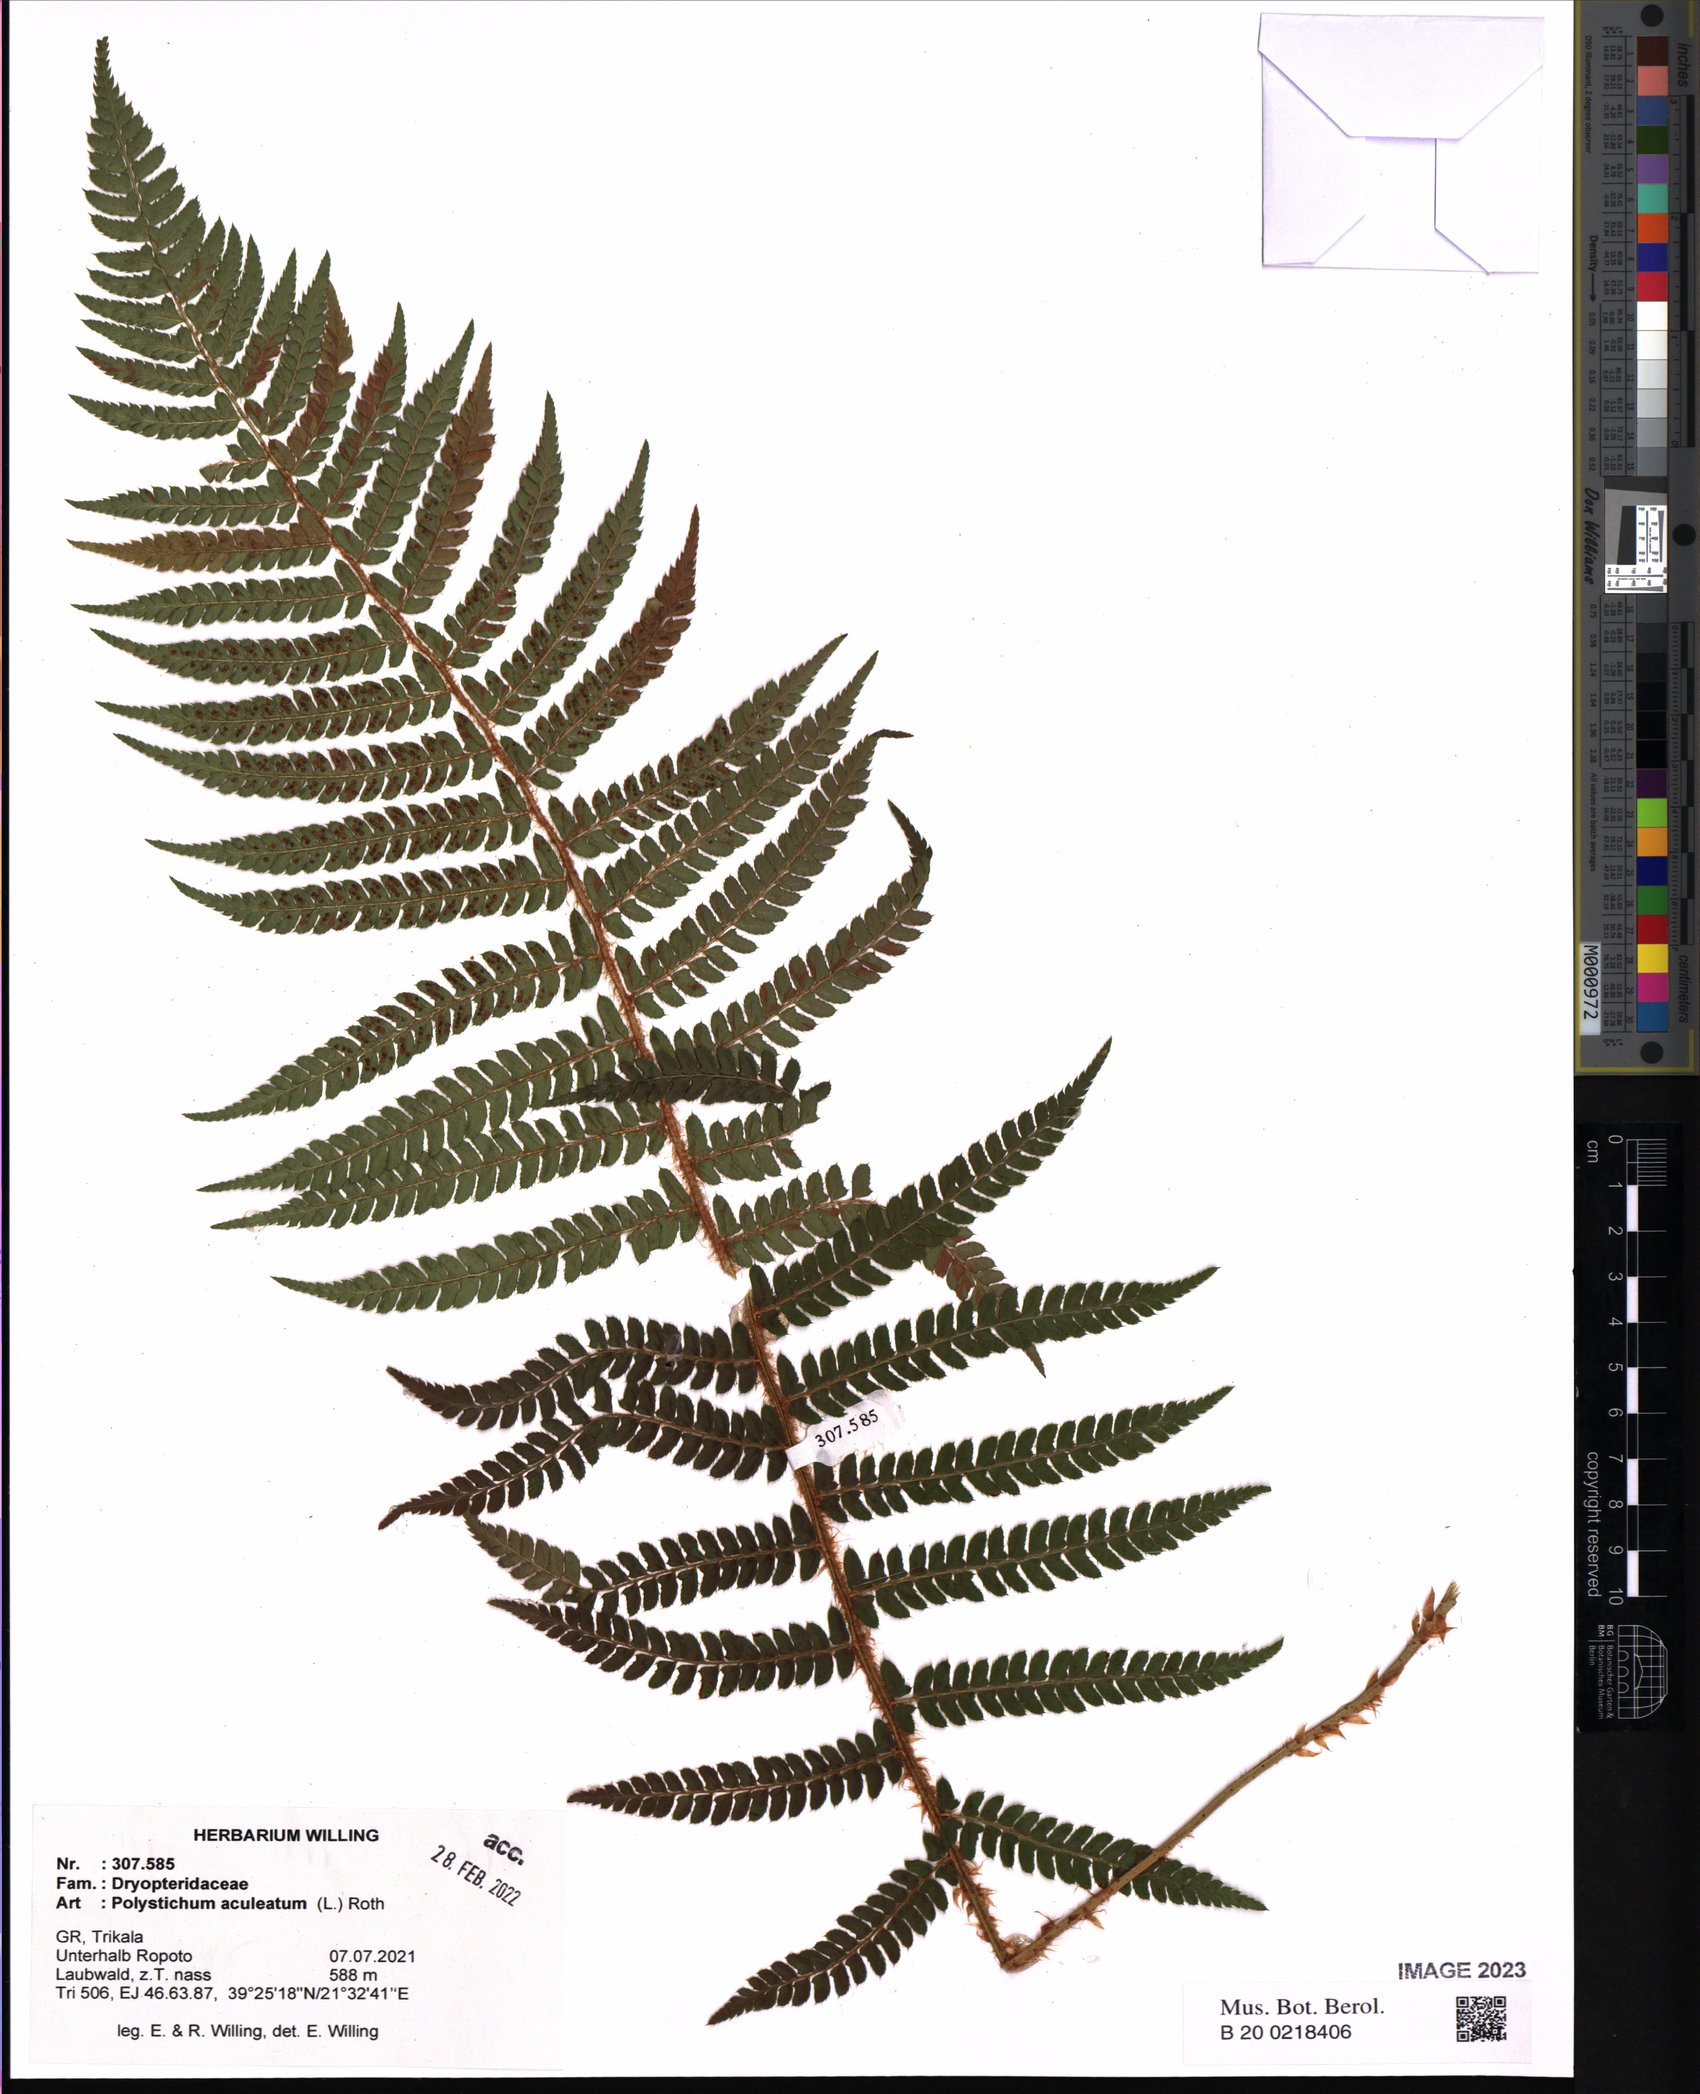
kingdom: Plantae
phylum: Tracheophyta
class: Polypodiopsida
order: Polypodiales
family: Dryopteridaceae
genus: Polystichum
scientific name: Polystichum aculeatum
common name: Hard shield-fern
